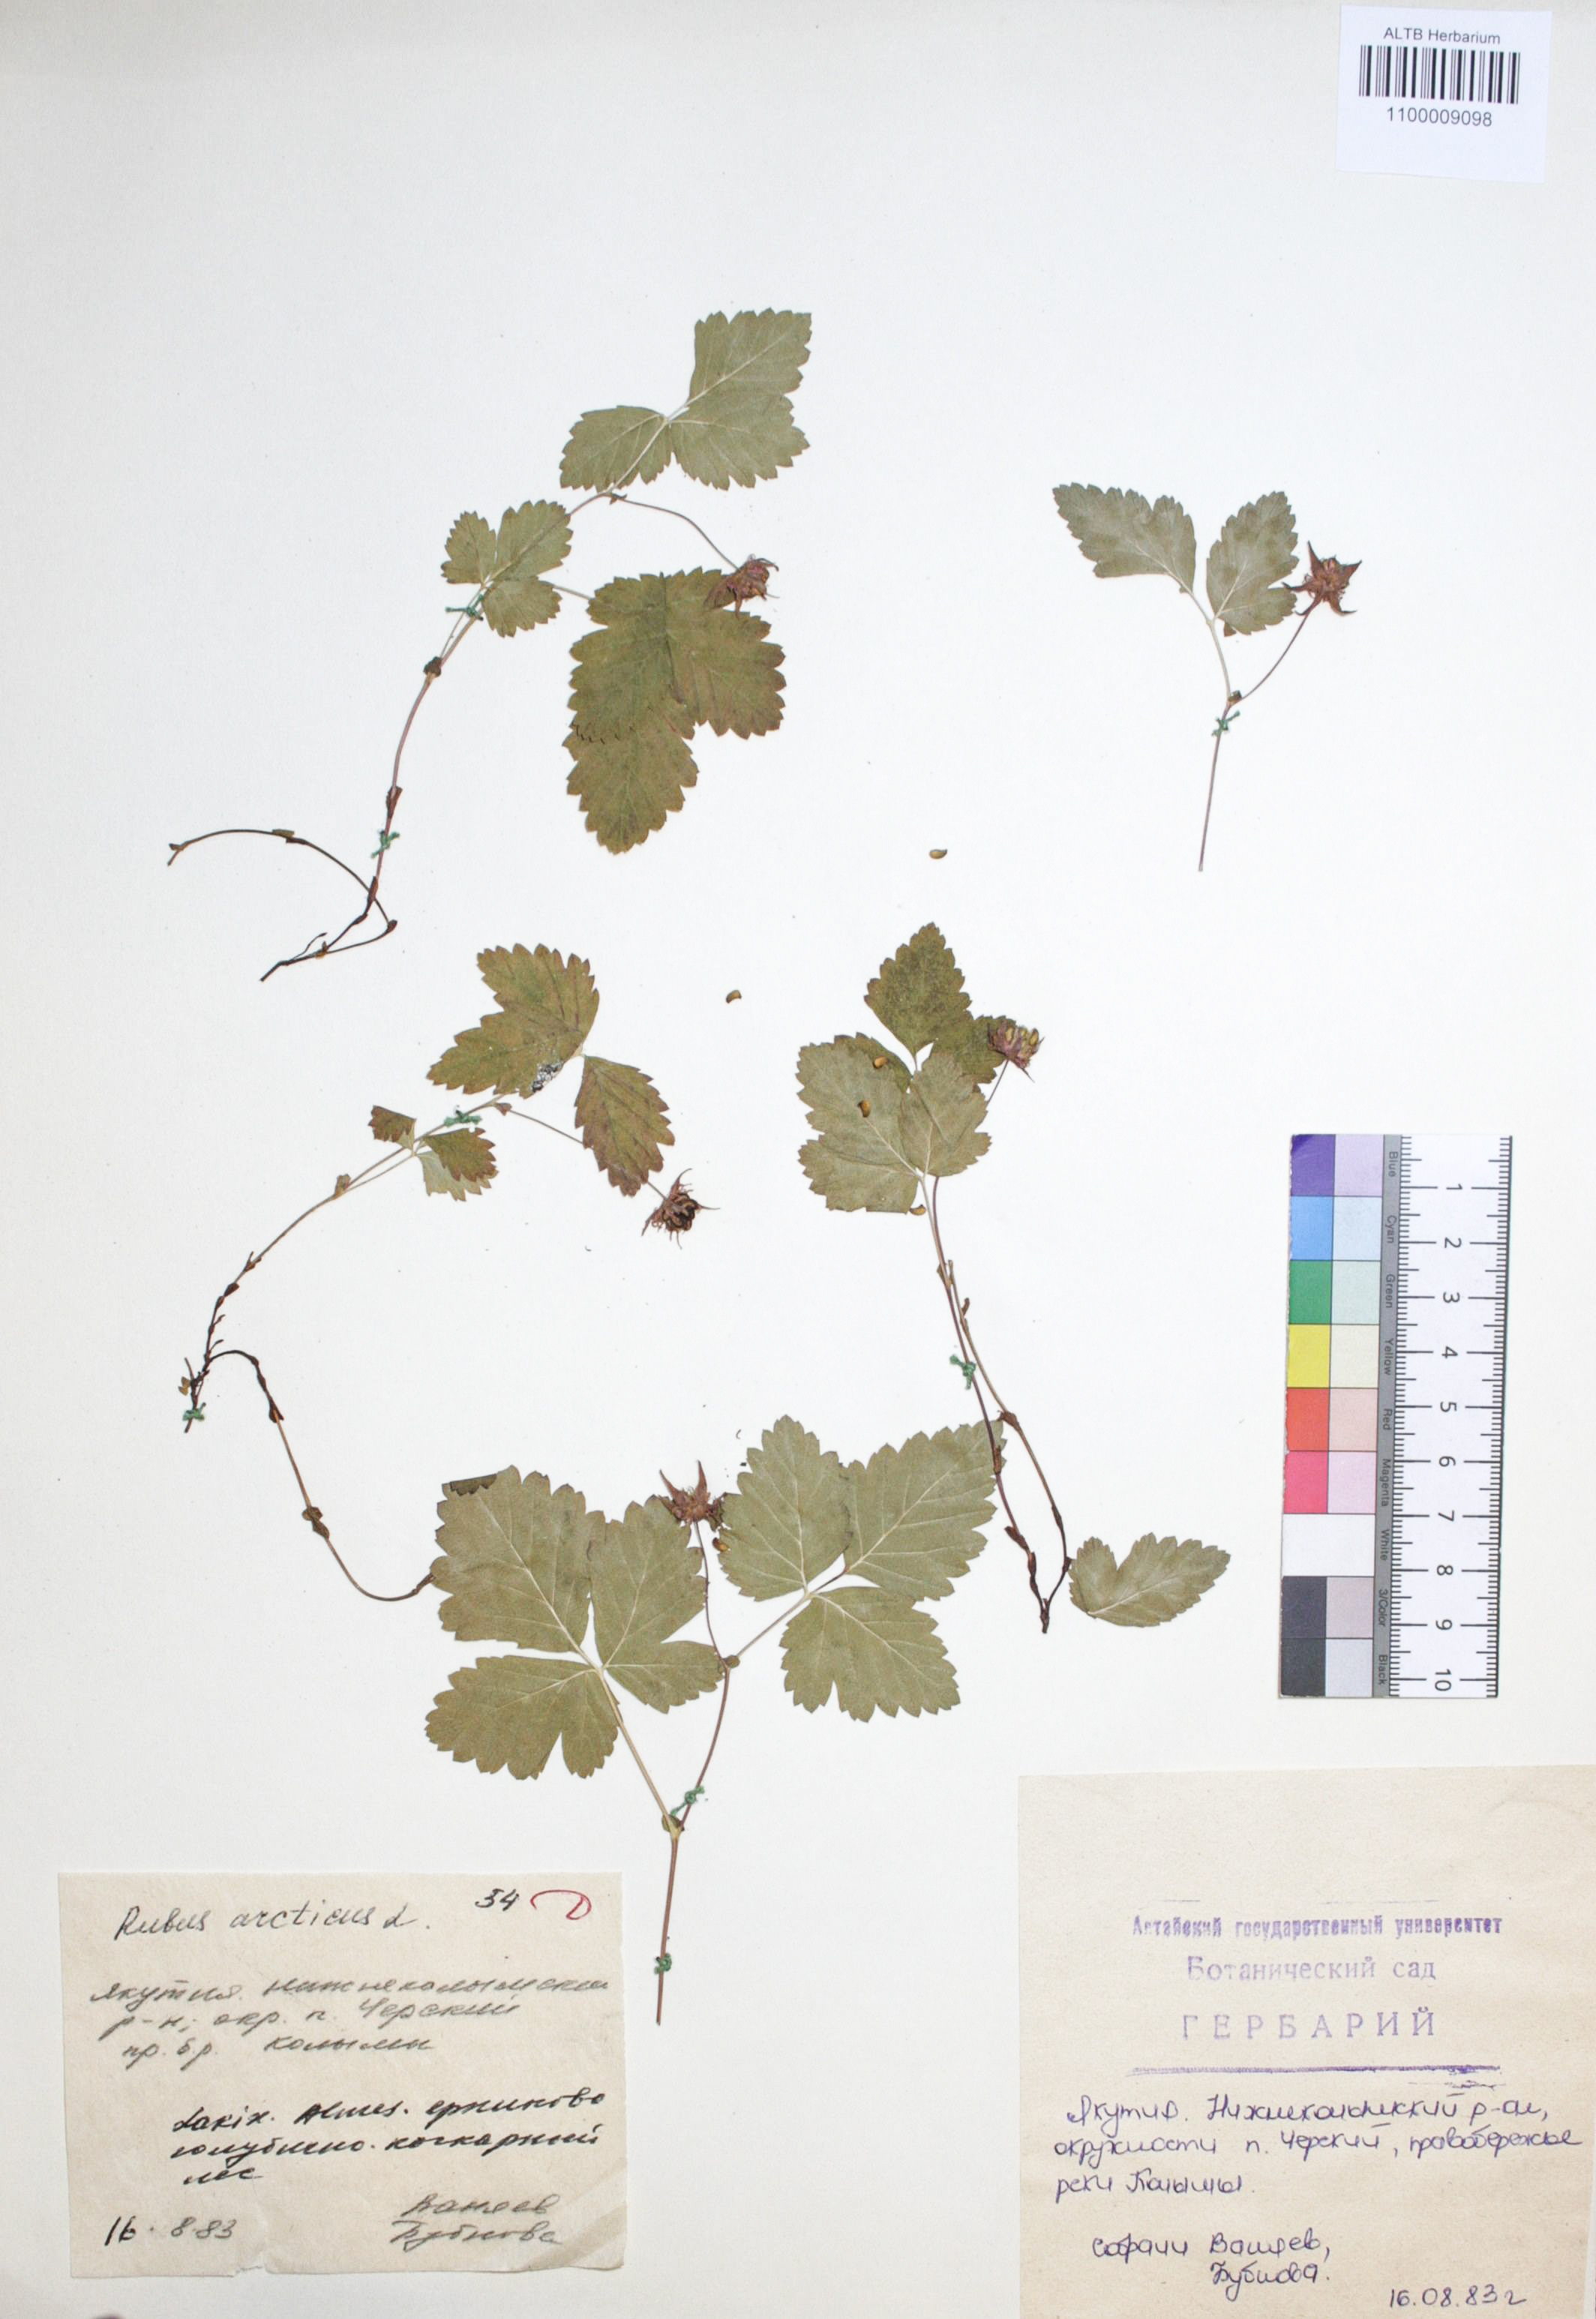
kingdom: Plantae
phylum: Tracheophyta
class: Magnoliopsida
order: Rosales
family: Rosaceae
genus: Rubus
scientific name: Rubus arcticus
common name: Arctic bramble
